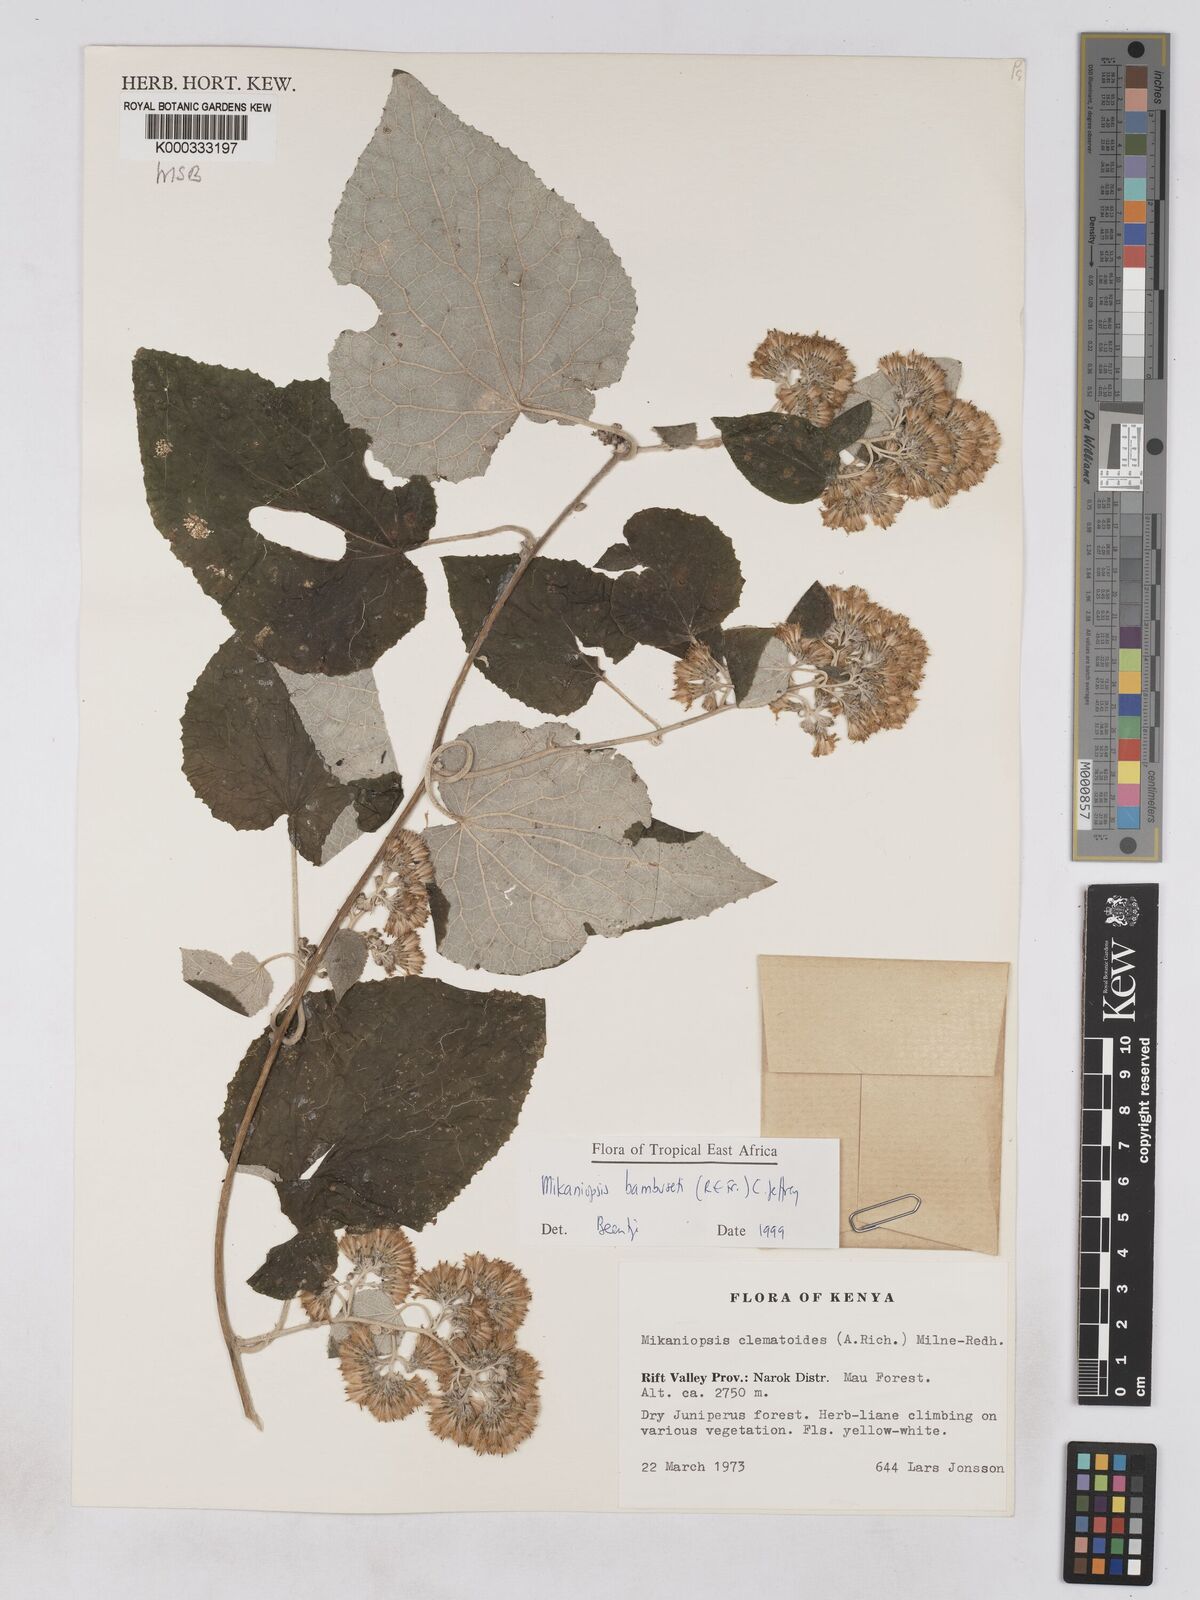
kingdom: Plantae
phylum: Tracheophyta
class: Magnoliopsida
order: Asterales
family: Asteraceae
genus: Mikaniopsis
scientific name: Mikaniopsis bambuseti
